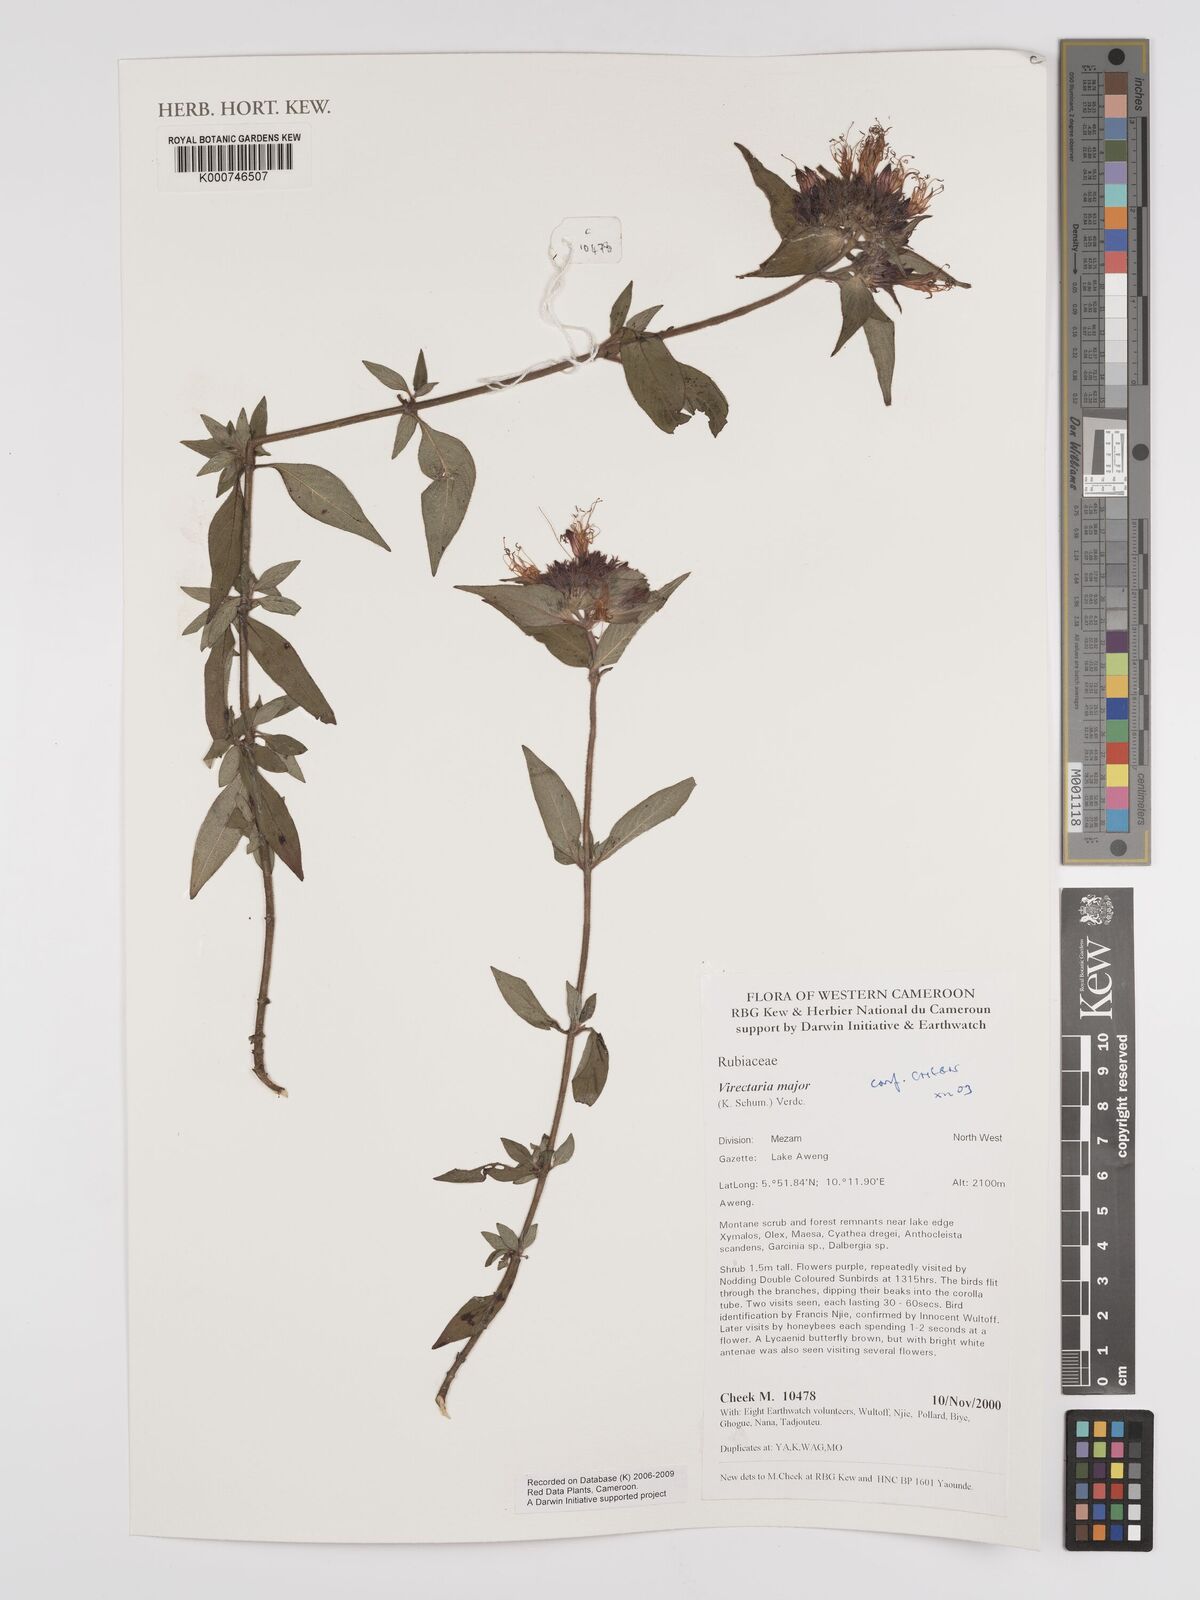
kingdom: Plantae
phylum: Tracheophyta
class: Magnoliopsida
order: Gentianales
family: Rubiaceae
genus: Virectaria
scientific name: Virectaria major
